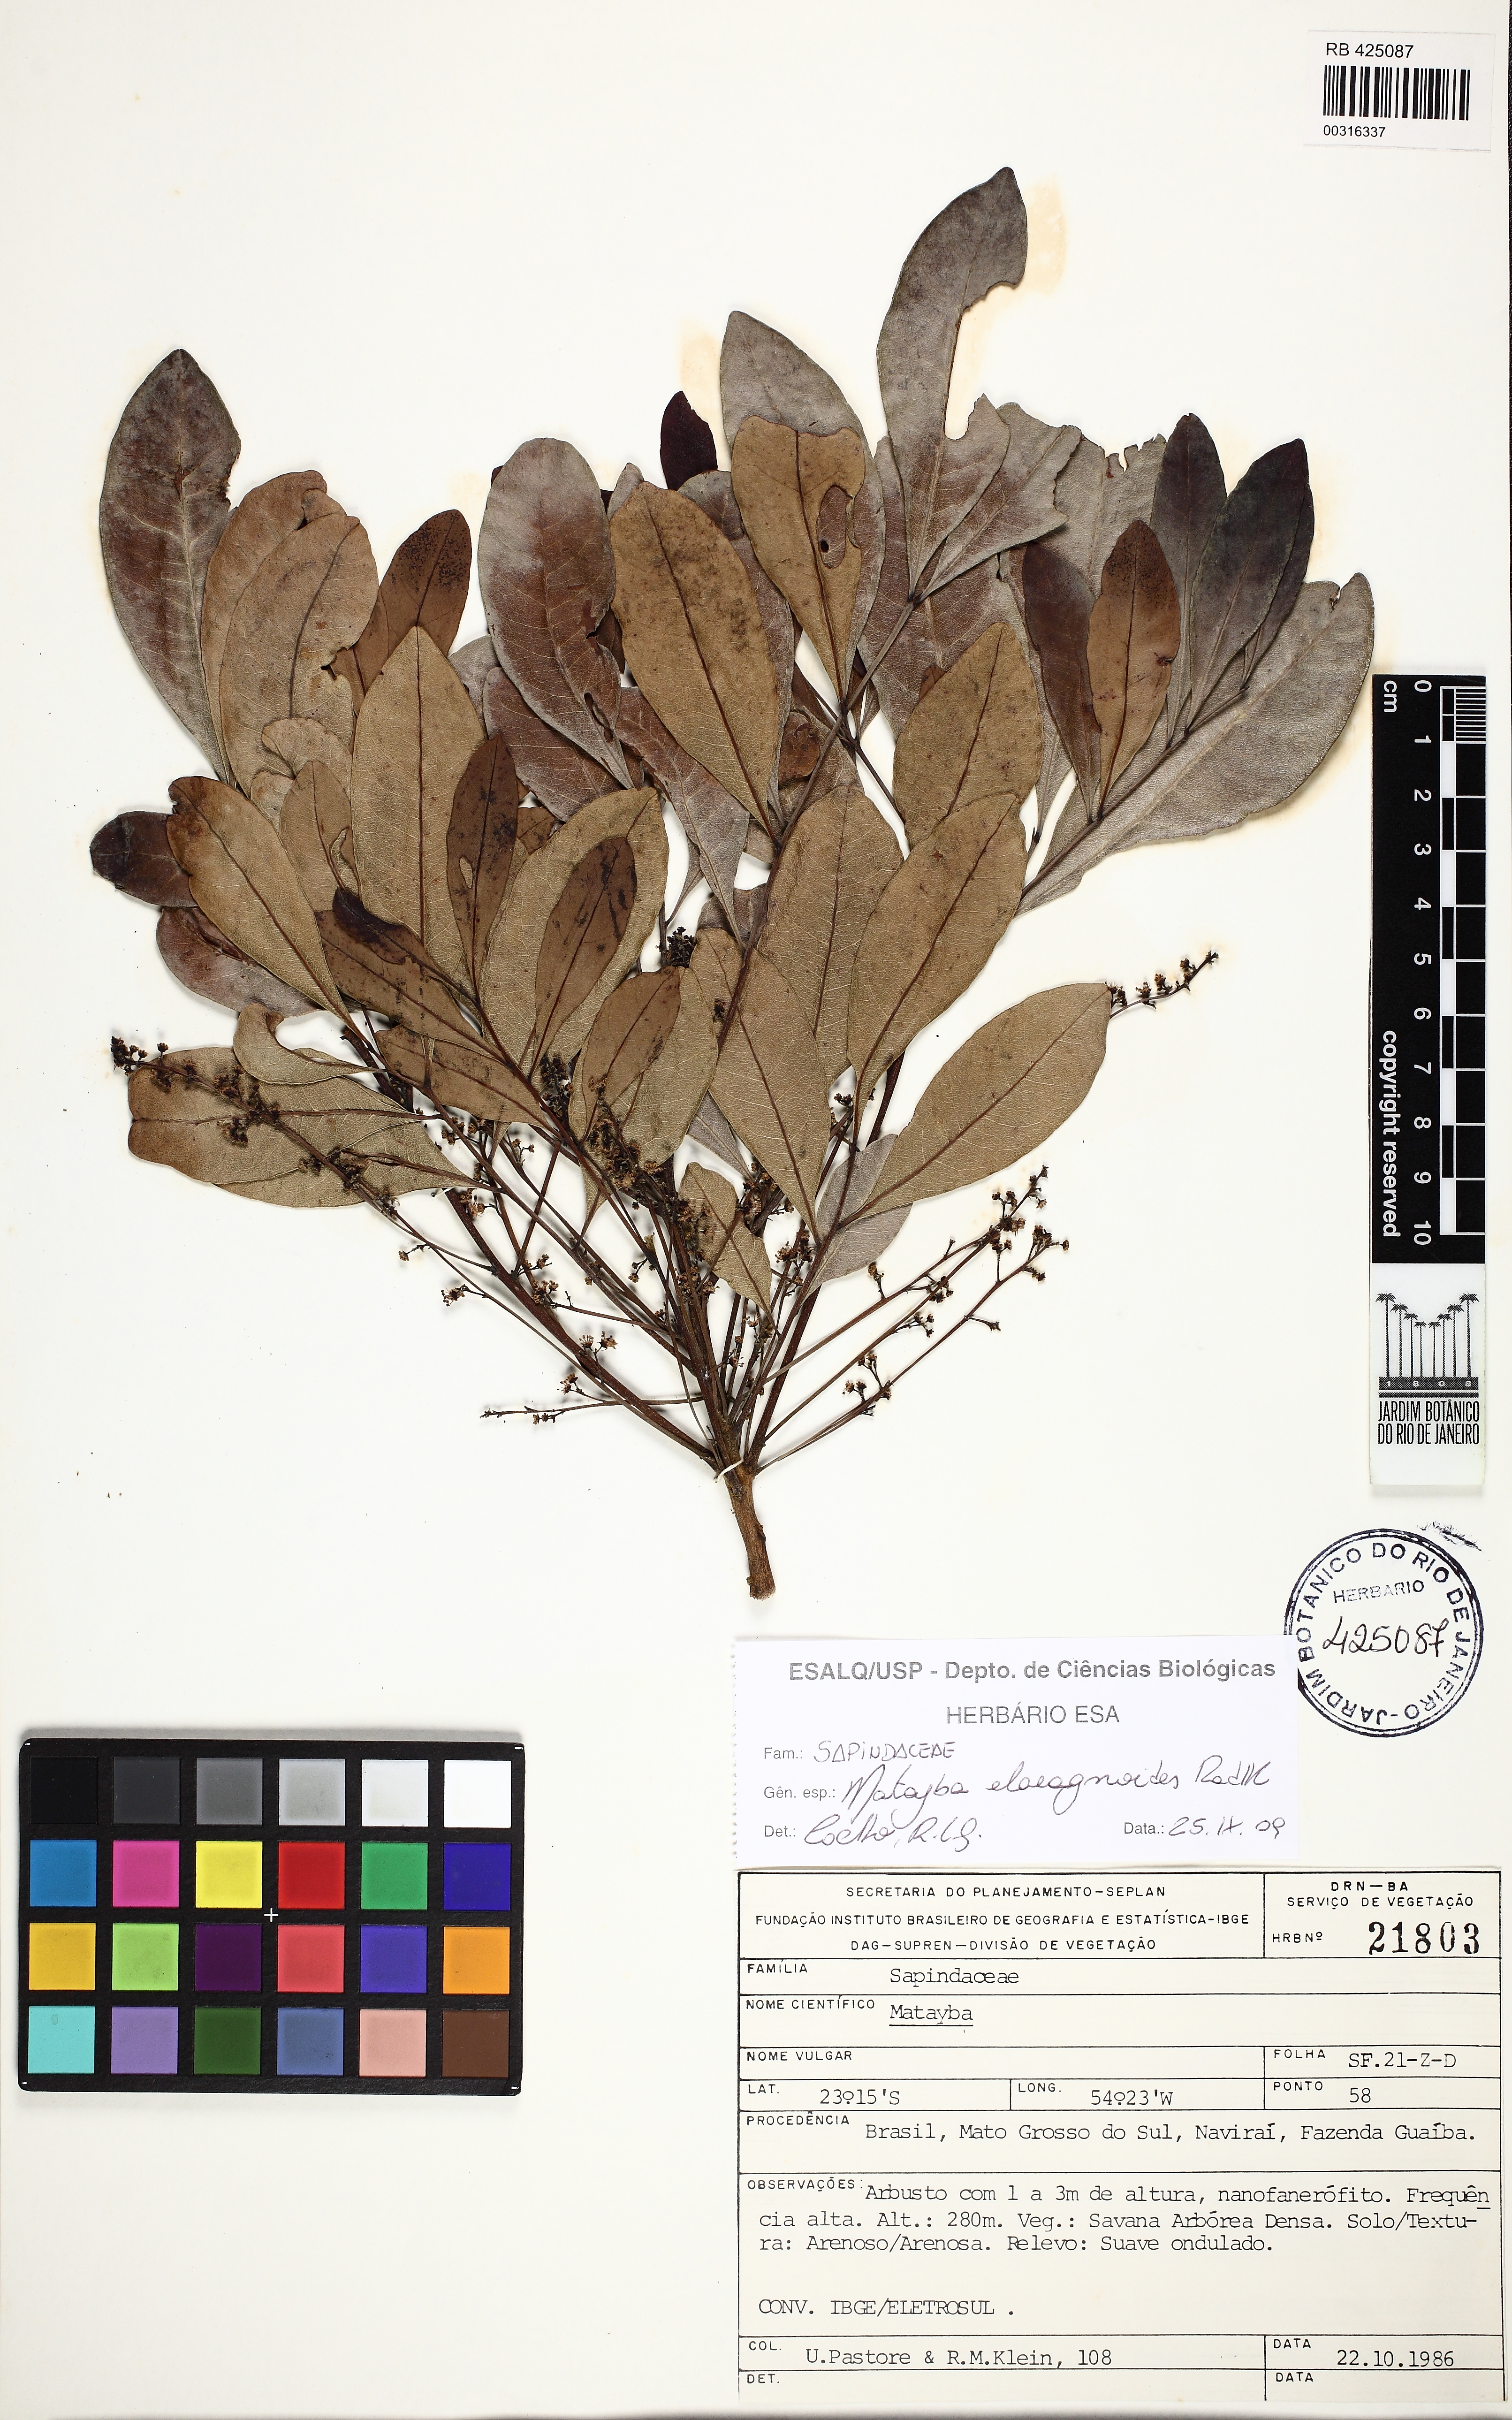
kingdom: Plantae
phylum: Tracheophyta
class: Magnoliopsida
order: Sapindales
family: Sapindaceae
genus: Matayba
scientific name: Matayba elaeagnoides
